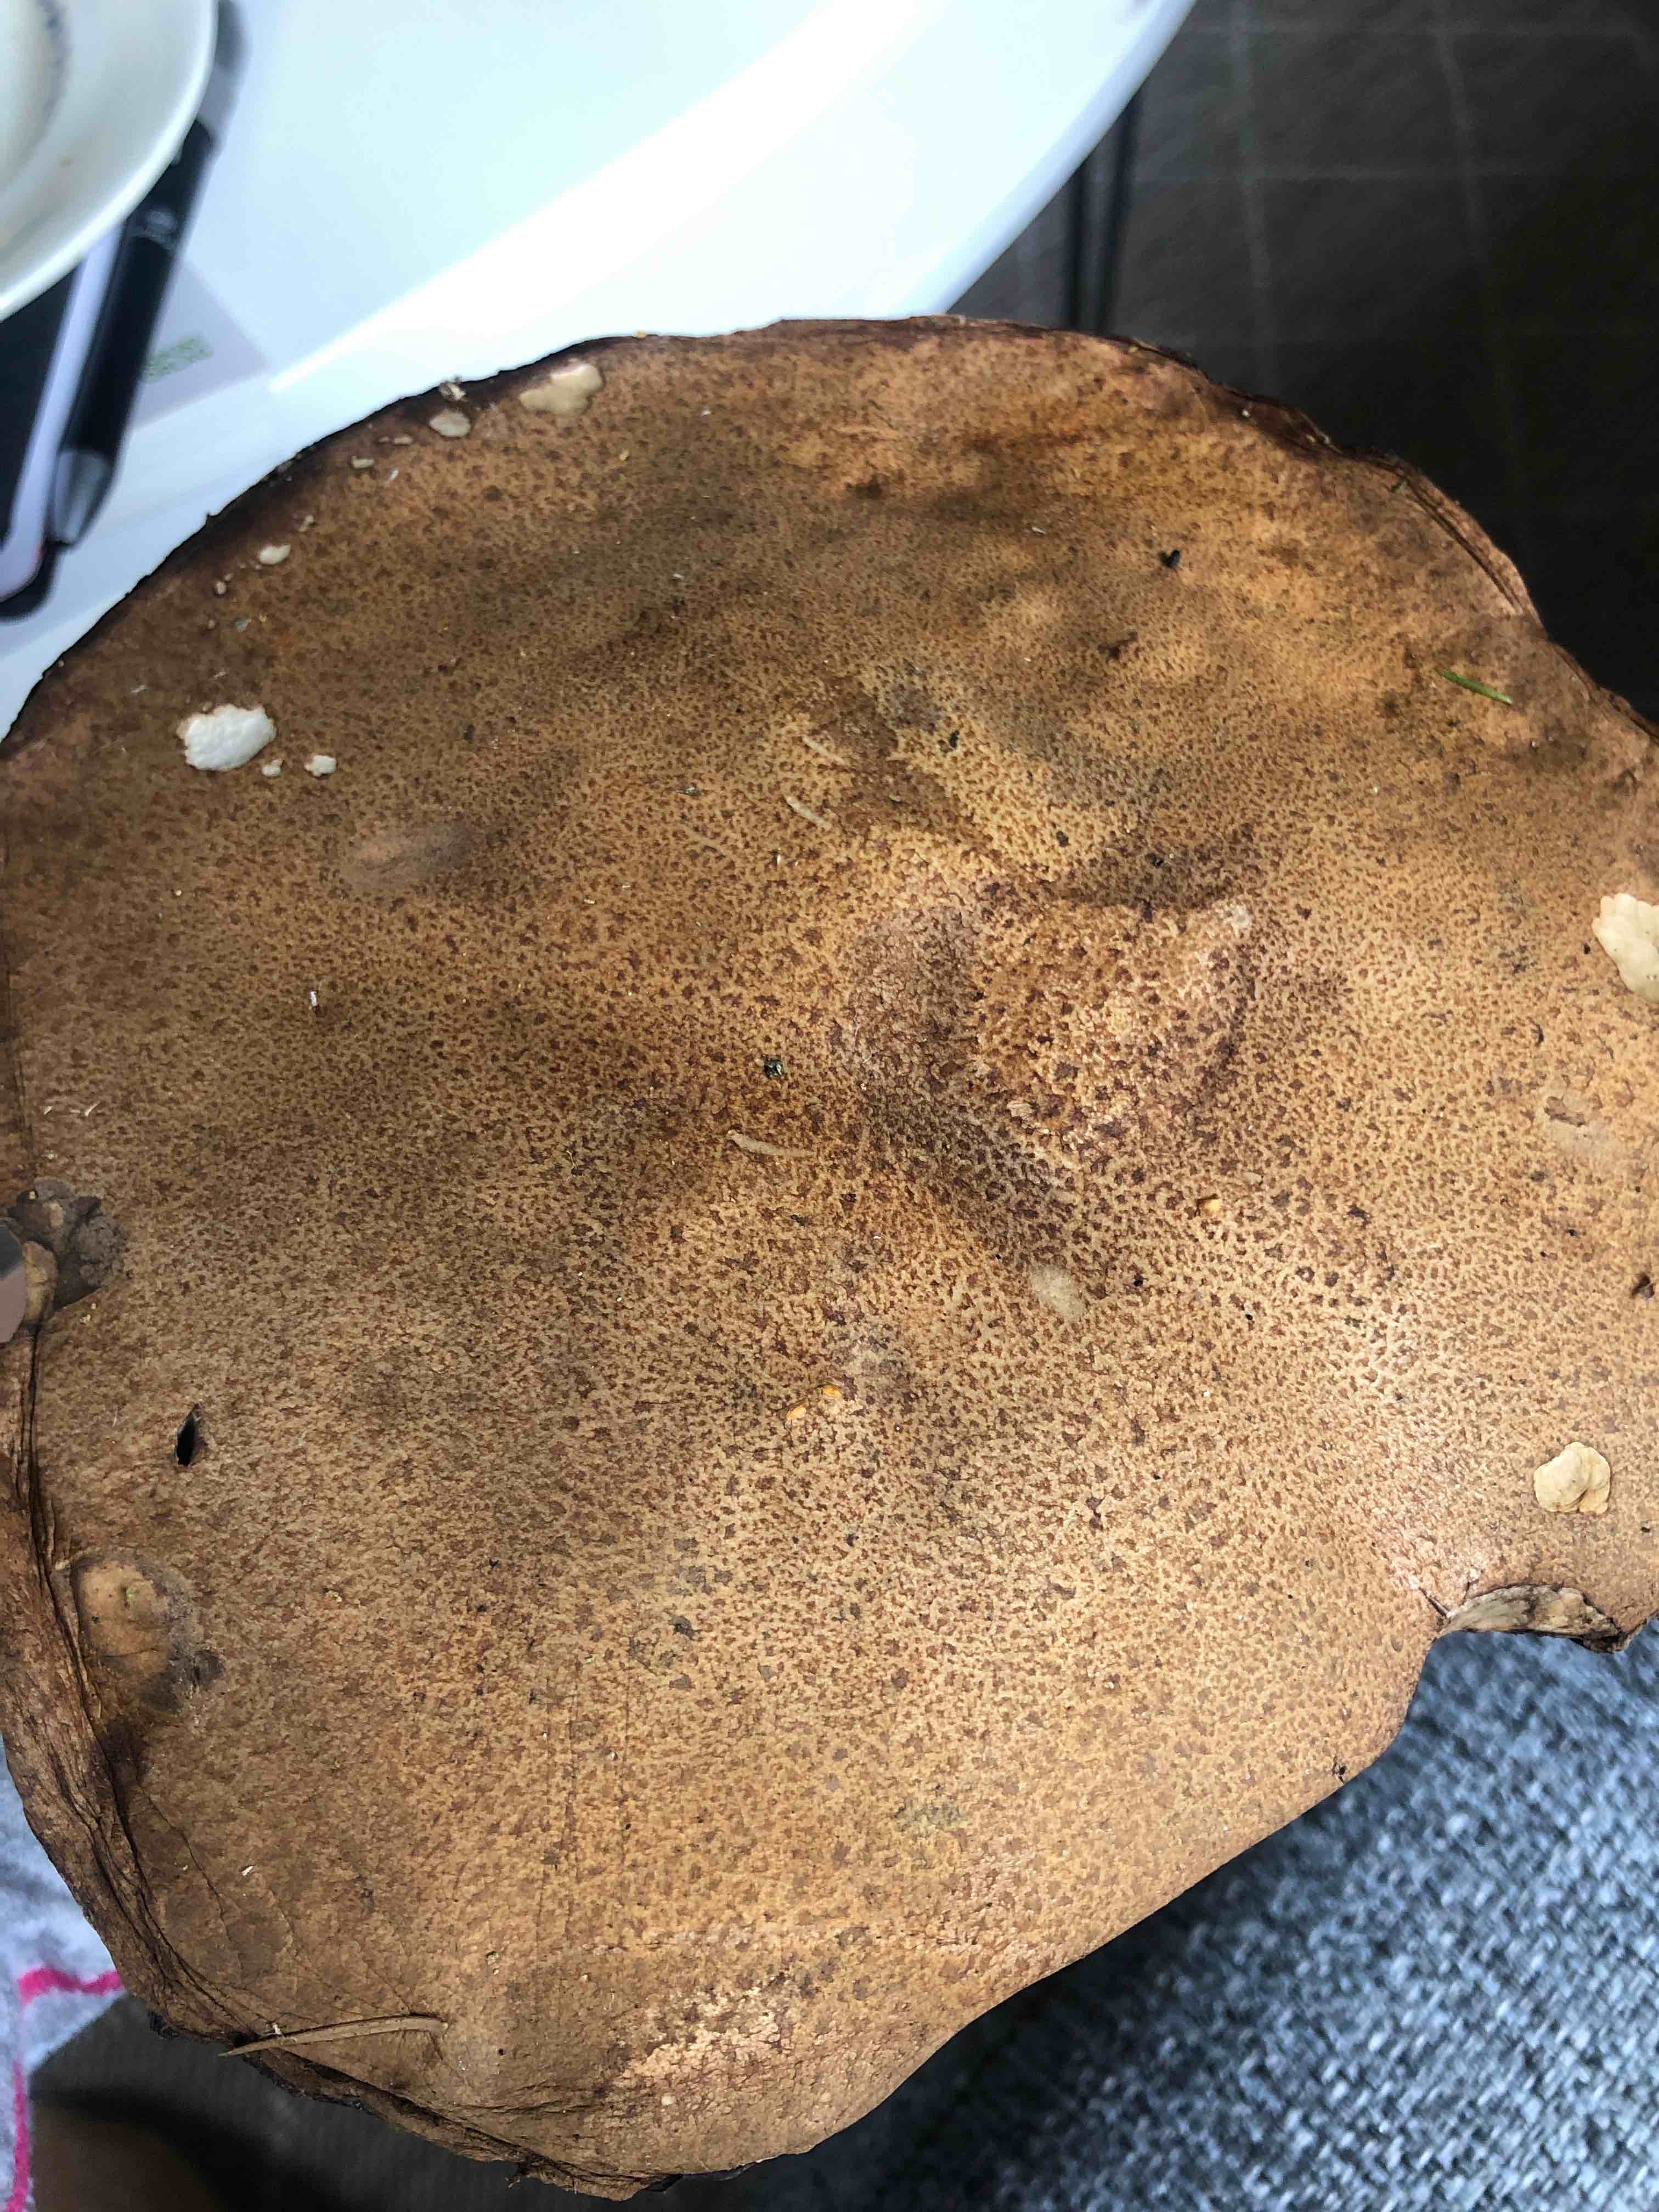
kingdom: Fungi
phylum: Basidiomycota
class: Agaricomycetes
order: Boletales
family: Boletaceae
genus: Leccinum
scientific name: Leccinum
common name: skælrørhat
